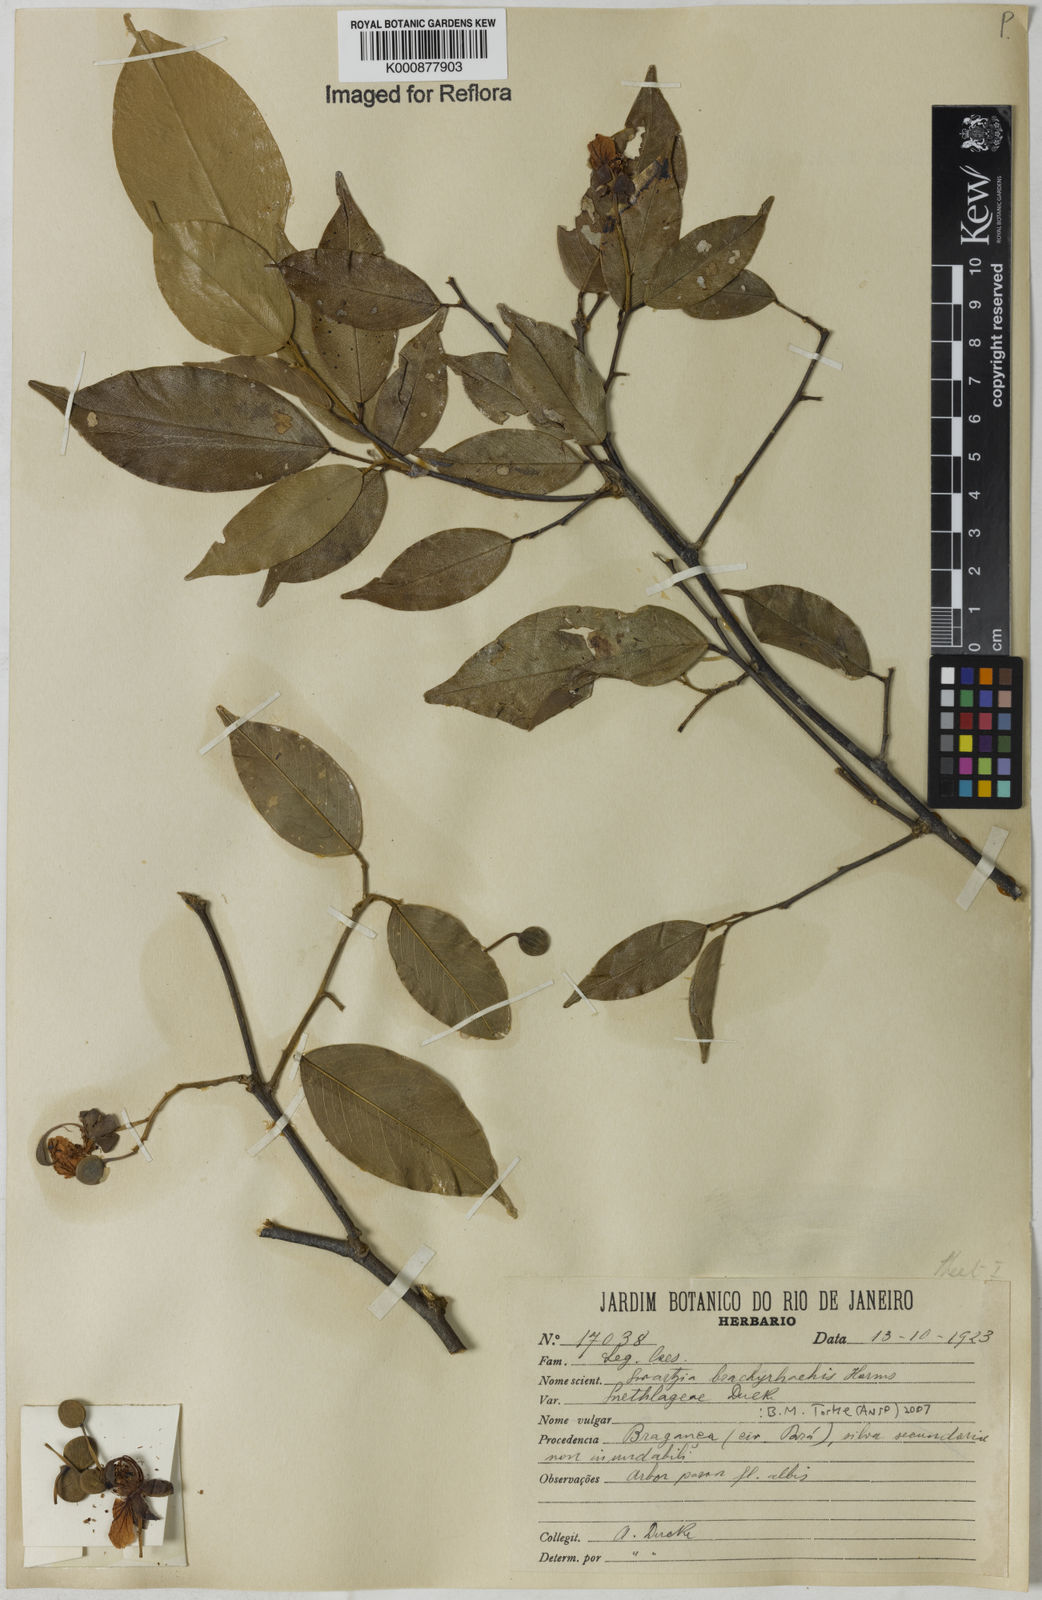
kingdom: Plantae
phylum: Tracheophyta
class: Magnoliopsida
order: Fabales
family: Fabaceae
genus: Swartzia
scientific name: Swartzia
